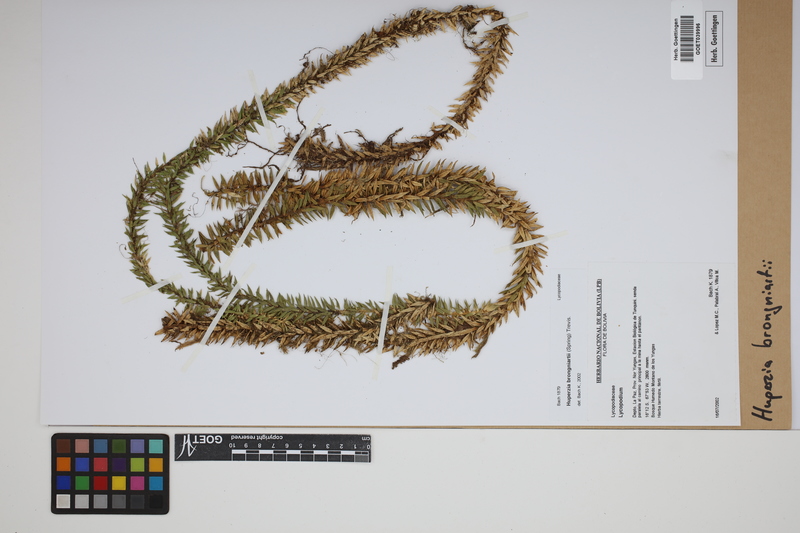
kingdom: Plantae
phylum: Tracheophyta
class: Lycopodiopsida
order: Lycopodiales
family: Lycopodiaceae
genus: Phlegmariurus
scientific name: Phlegmariurus brongniartii
